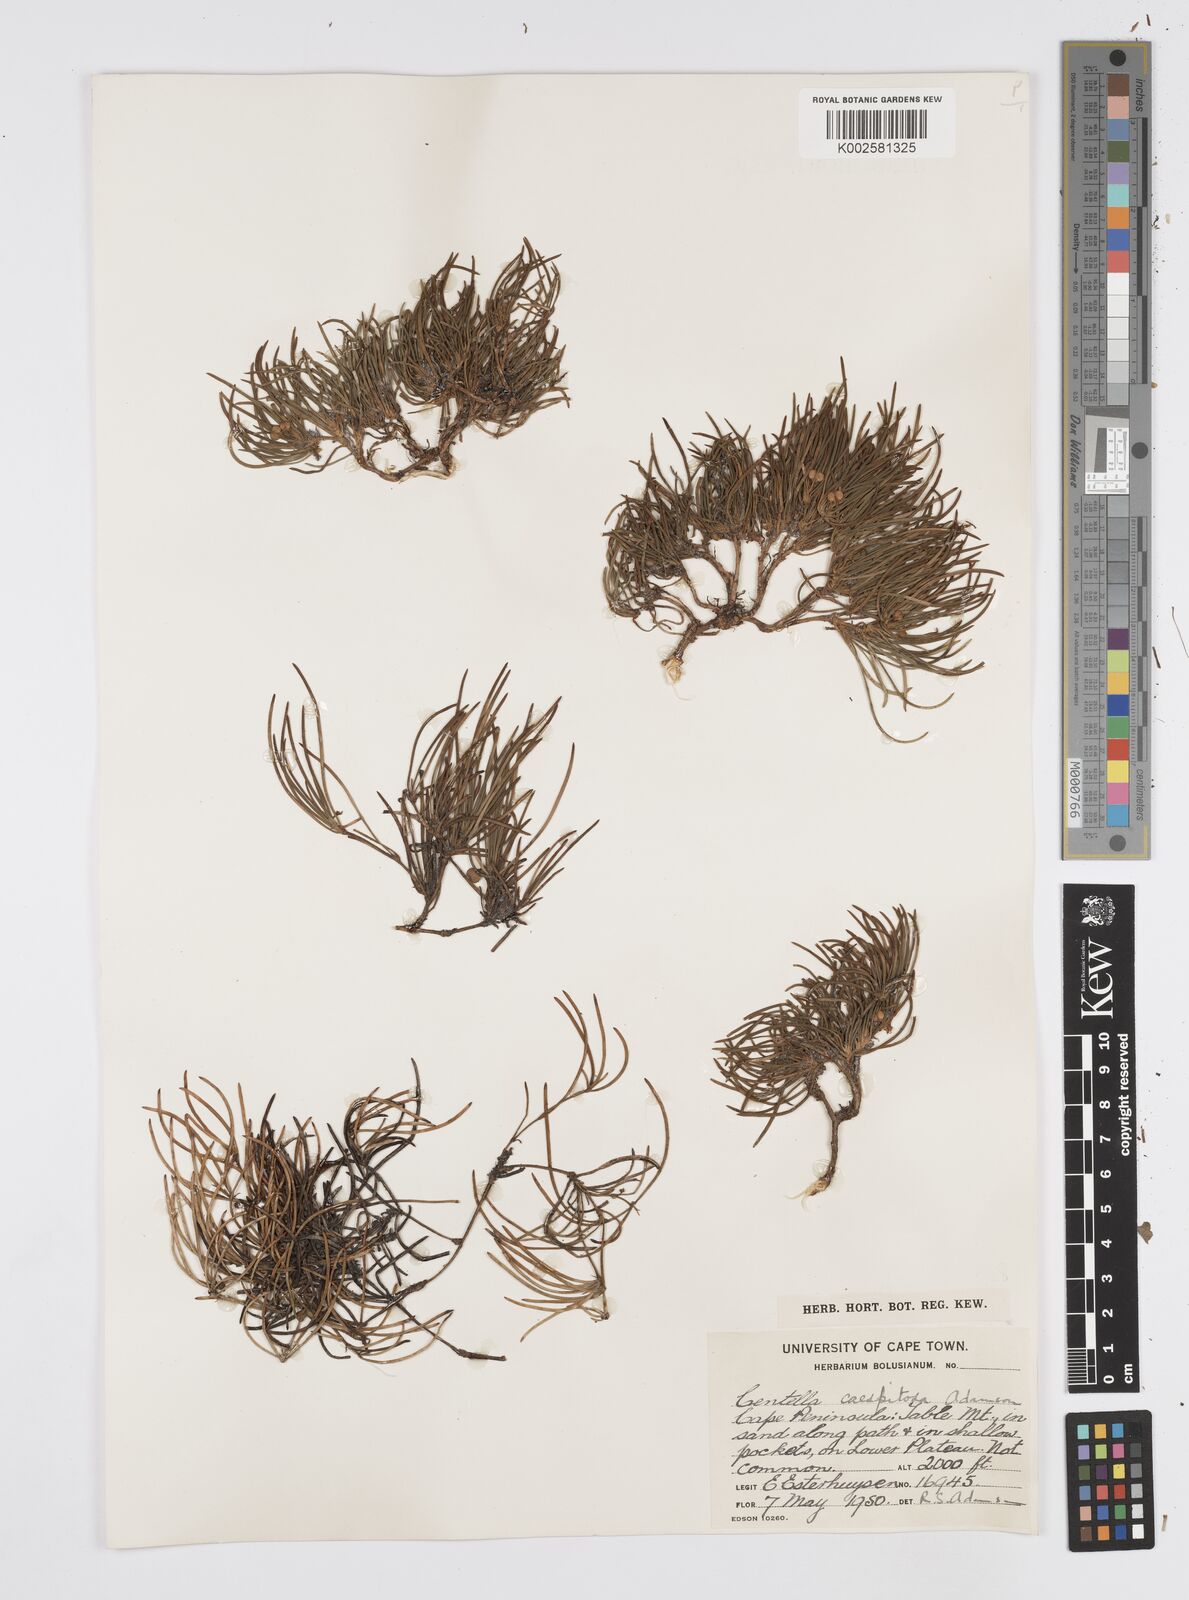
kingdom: Plantae
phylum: Tracheophyta
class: Magnoliopsida
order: Apiales
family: Apiaceae
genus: Centella
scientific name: Centella caespitosa
